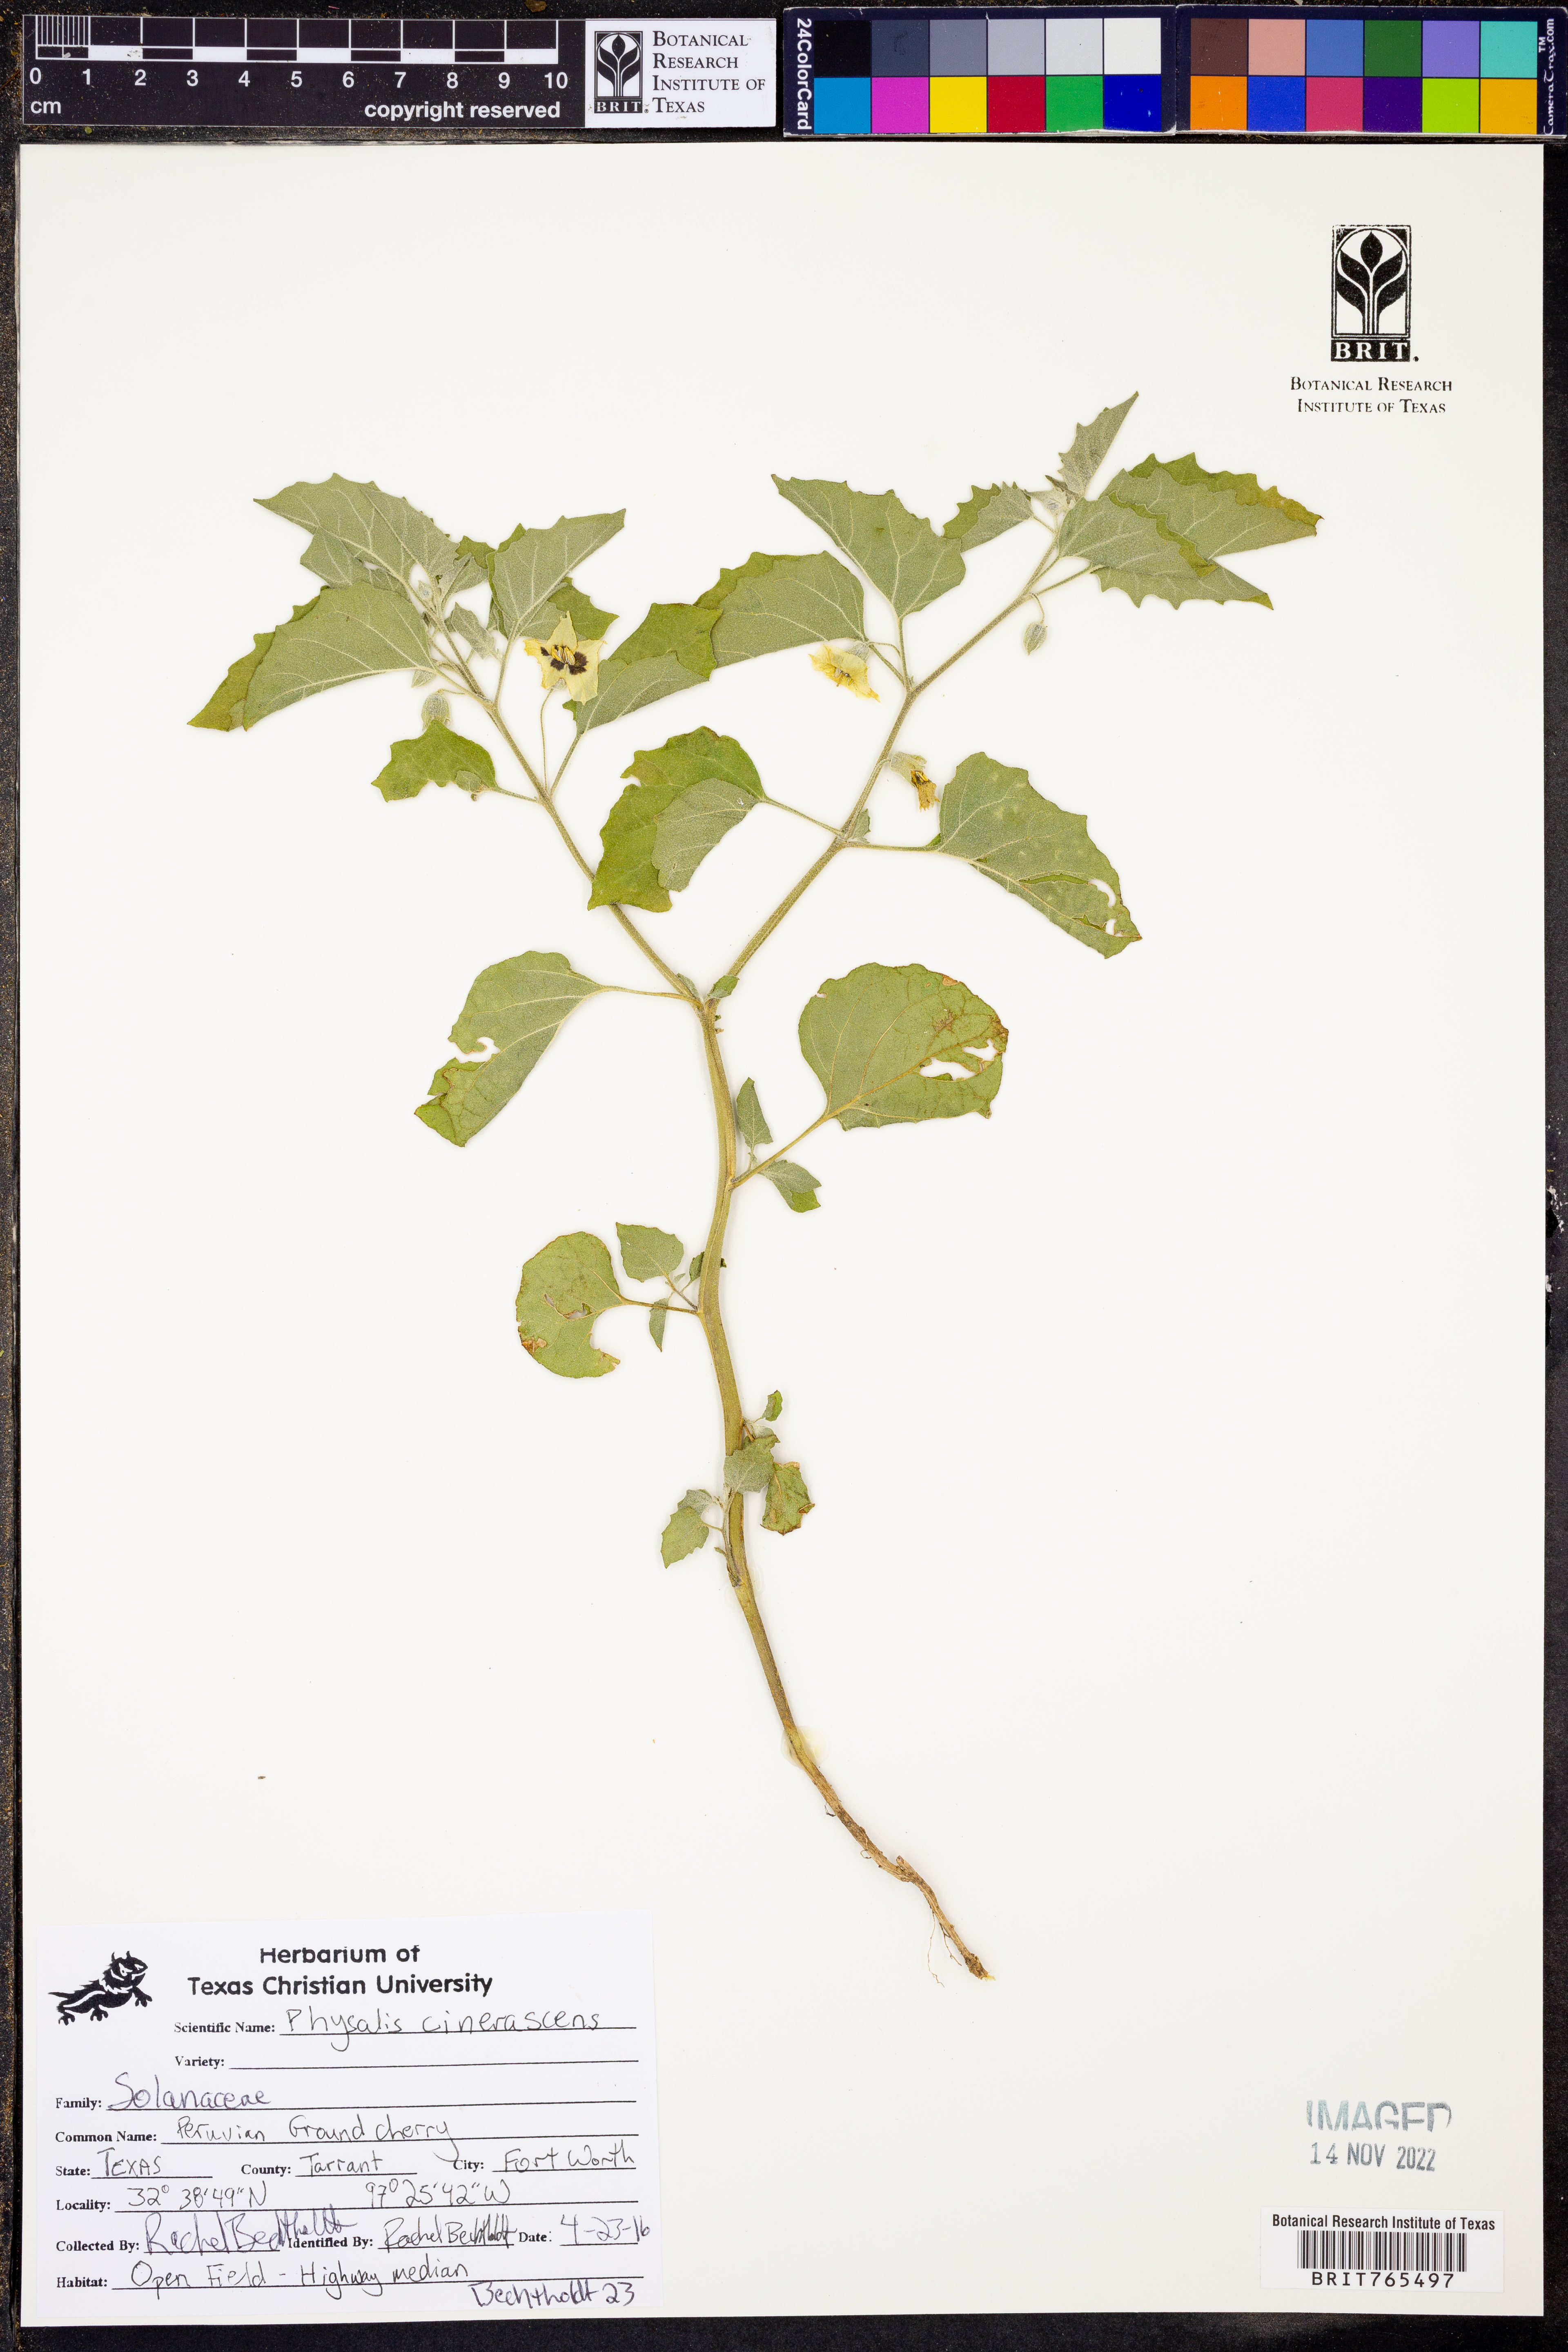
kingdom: Plantae
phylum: Tracheophyta
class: Magnoliopsida
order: Solanales
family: Solanaceae
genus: Physalis
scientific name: Physalis cinerascens
